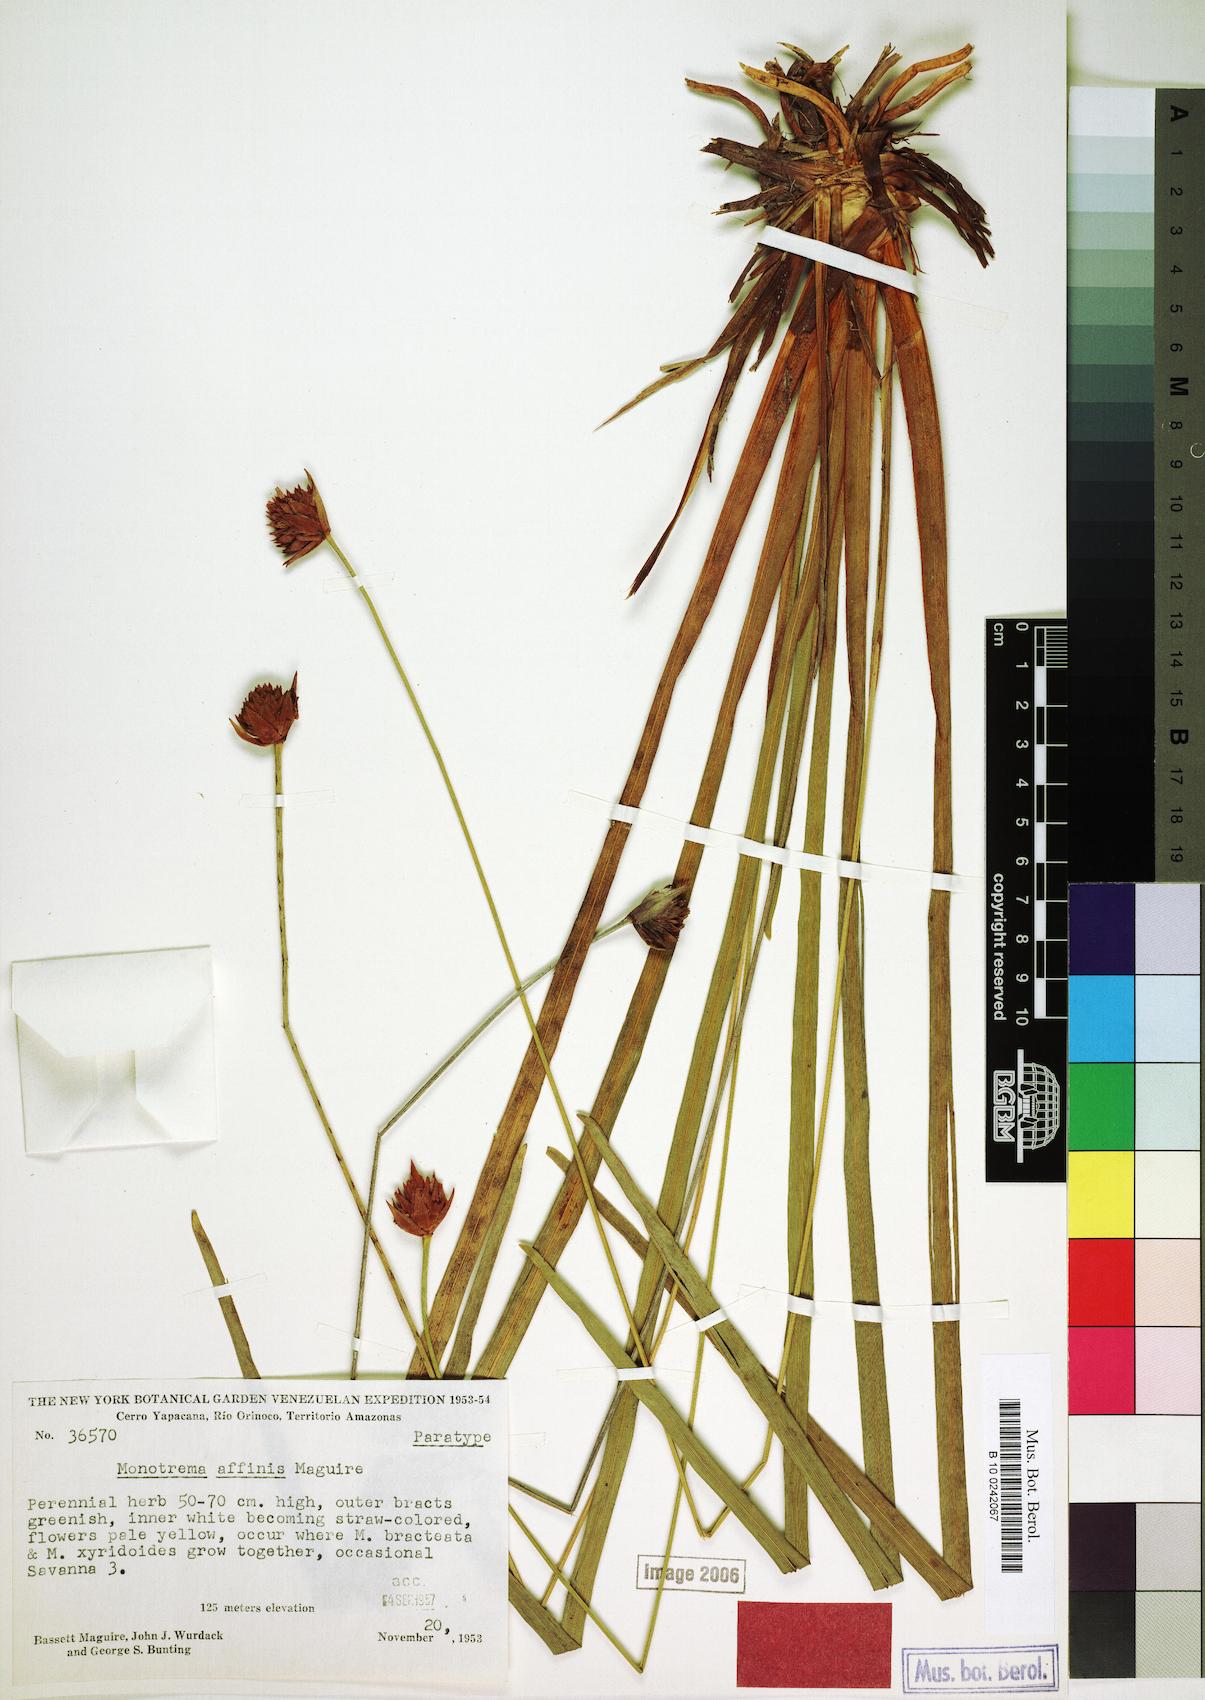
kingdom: Plantae
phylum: Tracheophyta
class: Liliopsida
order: Poales
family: Rapateaceae
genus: Monotrema
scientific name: Monotrema affine
